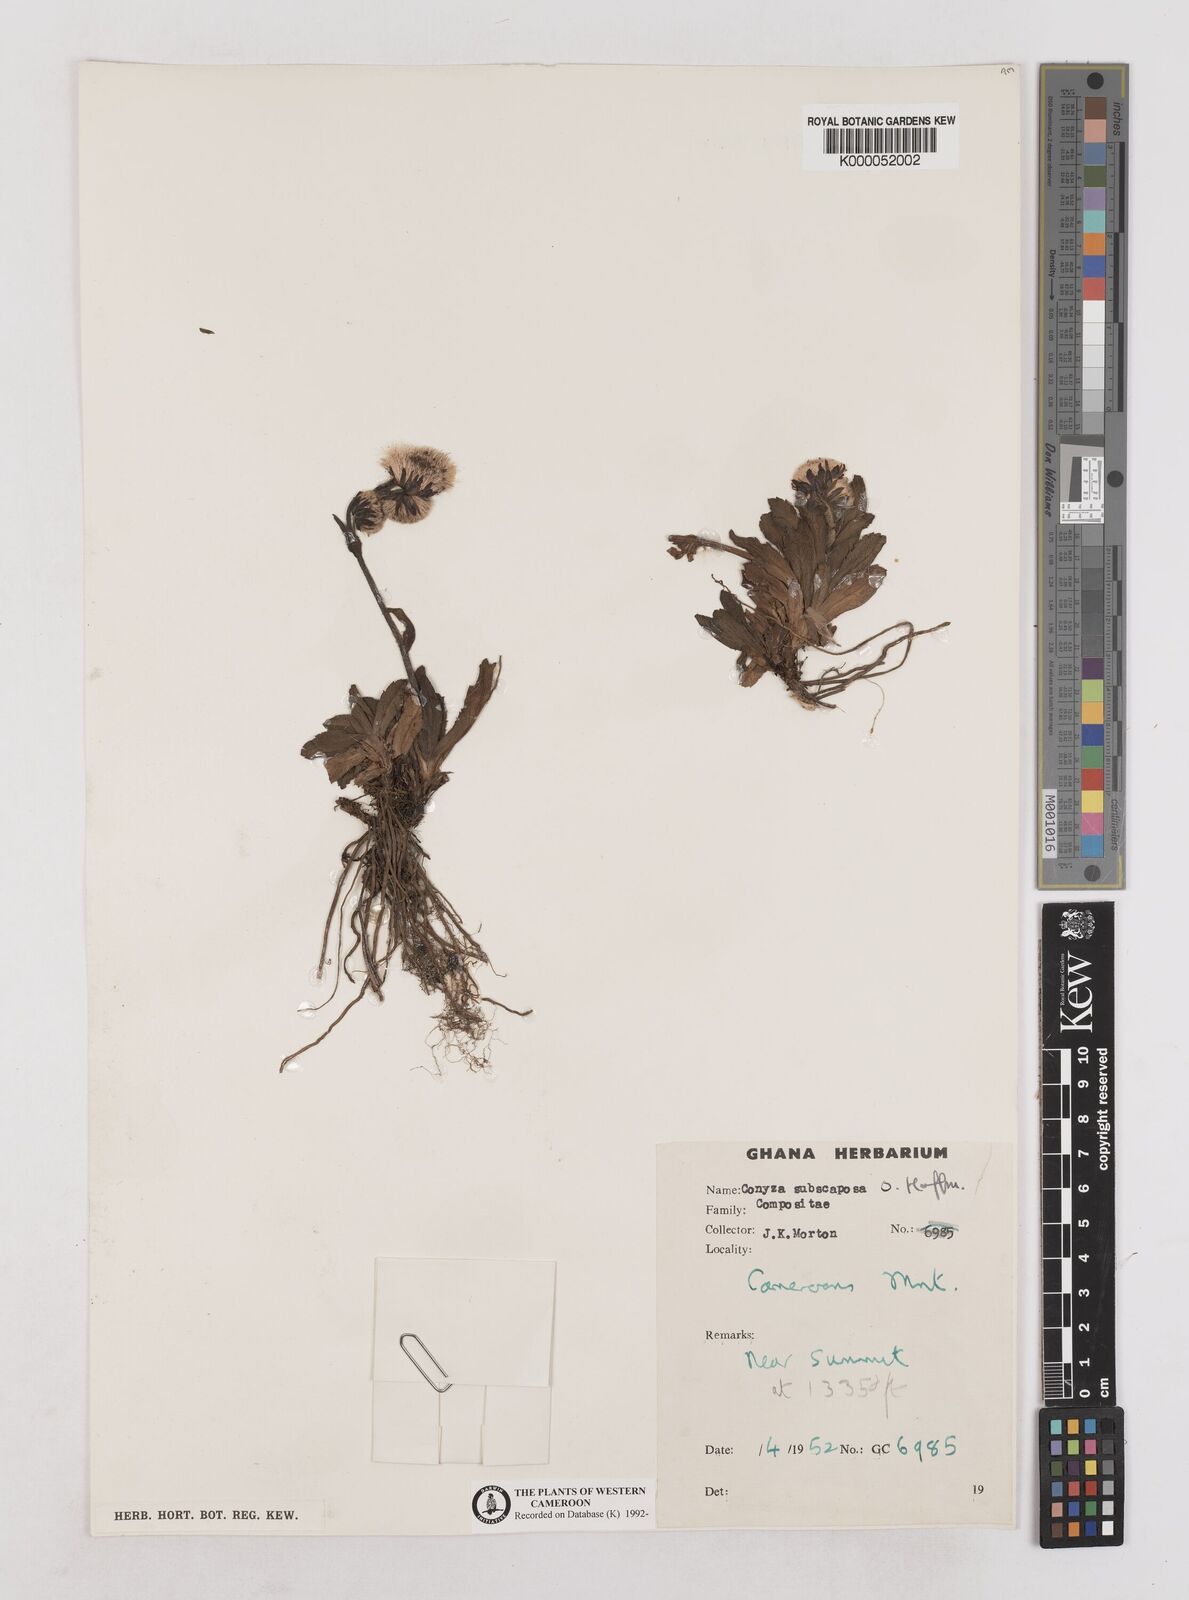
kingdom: Plantae
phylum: Tracheophyta
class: Magnoliopsida
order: Asterales
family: Asteraceae
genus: Eschenbachia
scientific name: Eschenbachia subscaposa
